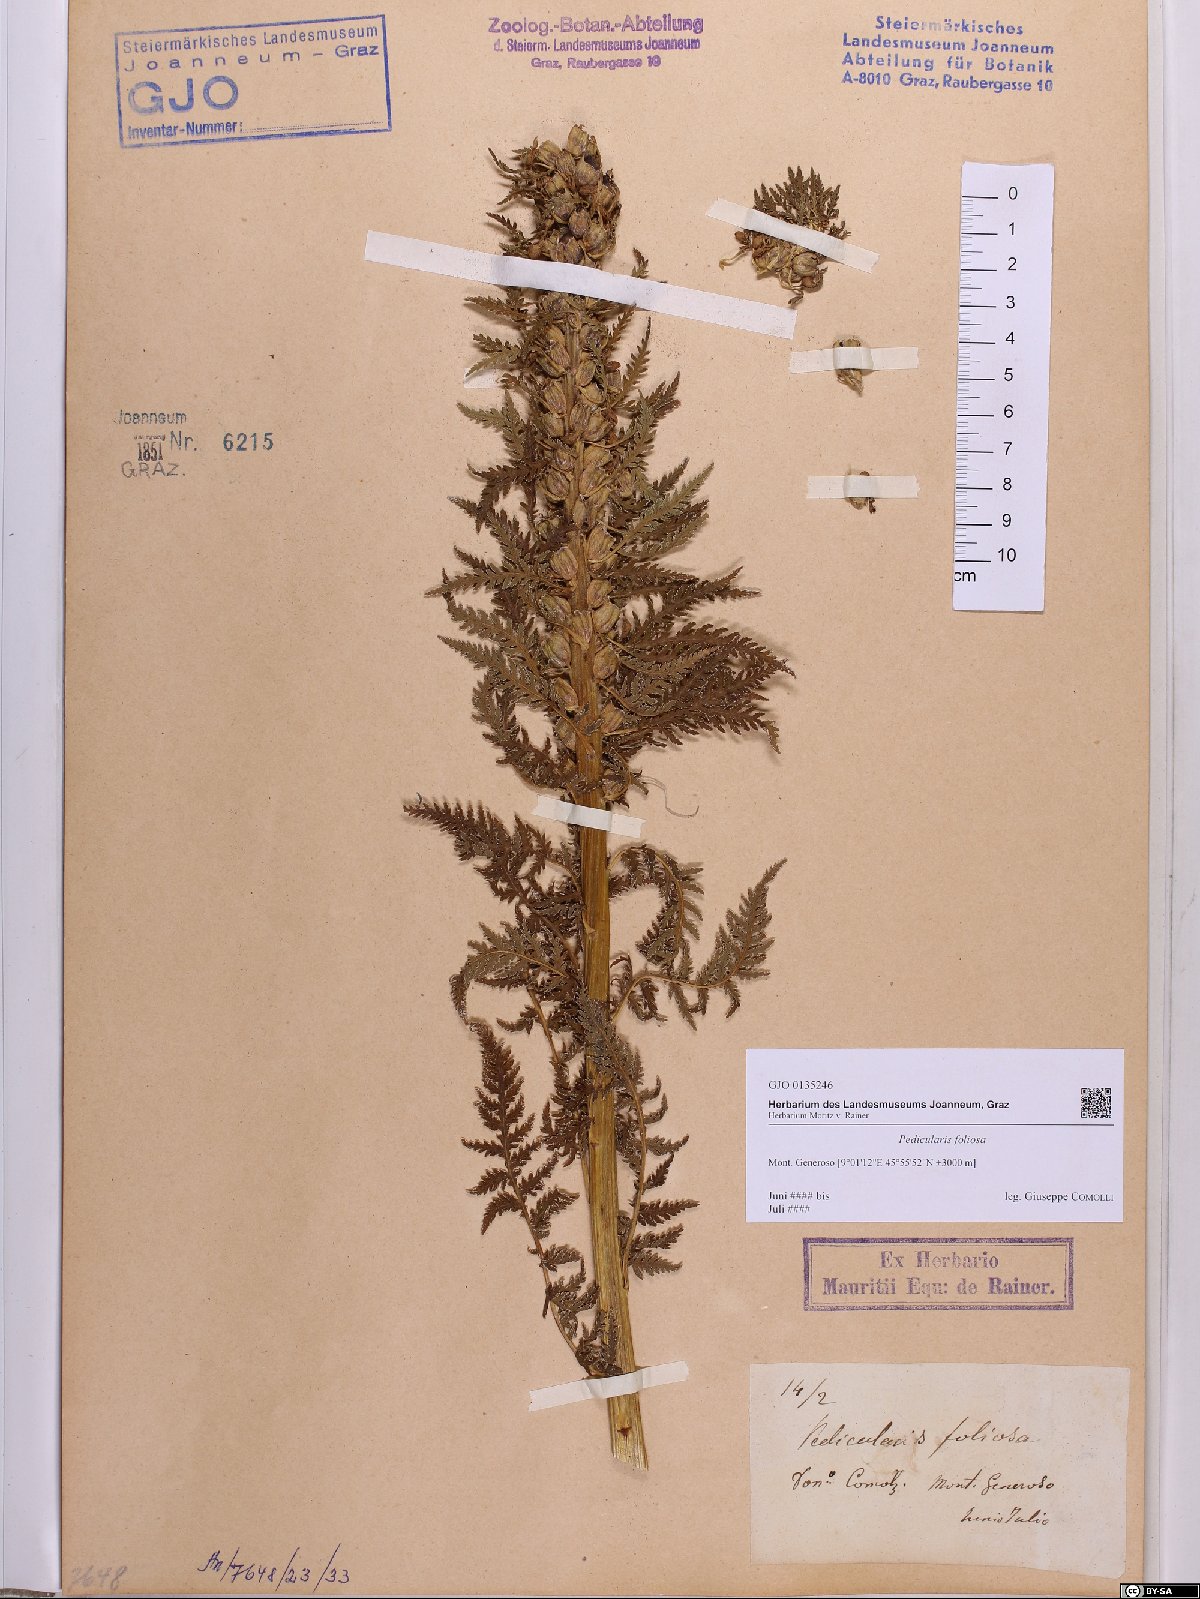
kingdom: Plantae
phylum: Tracheophyta
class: Magnoliopsida
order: Lamiales
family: Orobanchaceae
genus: Pedicularis
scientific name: Pedicularis foliosa
